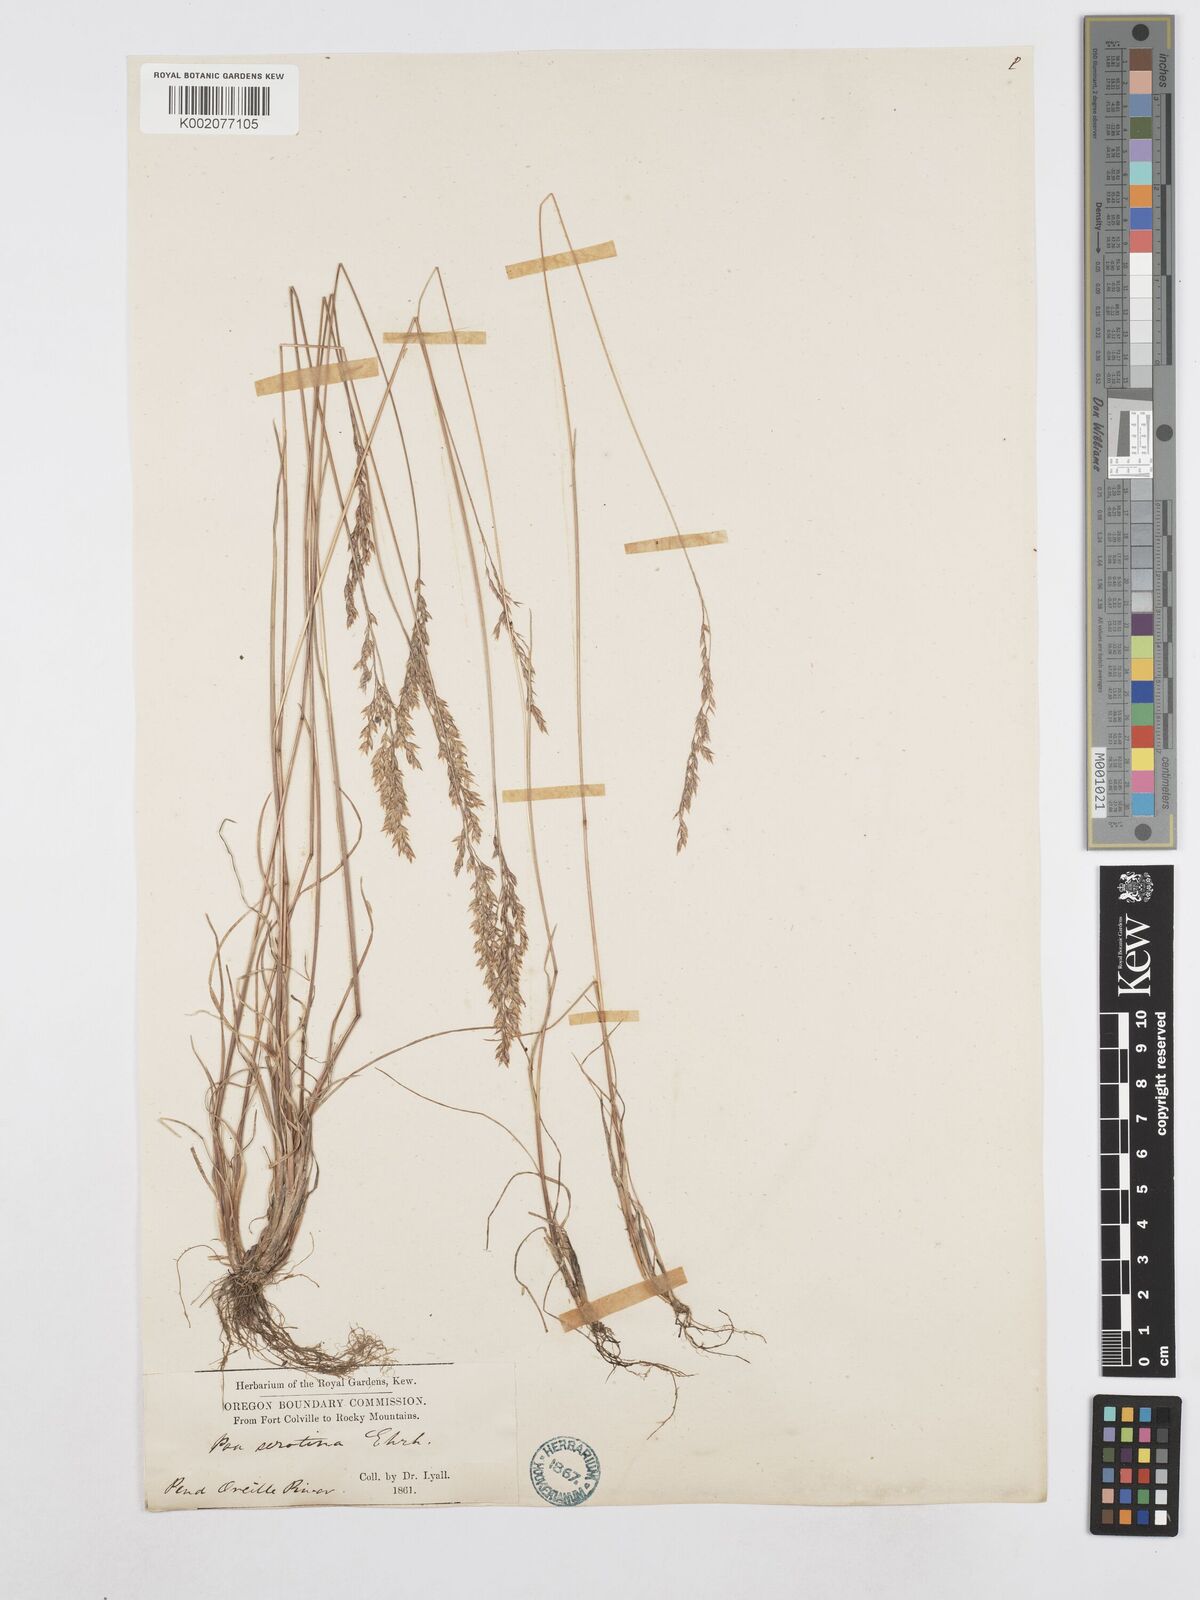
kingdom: Plantae
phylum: Tracheophyta
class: Liliopsida
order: Poales
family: Poaceae
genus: Poa
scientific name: Poa palustris
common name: Swamp meadow-grass
